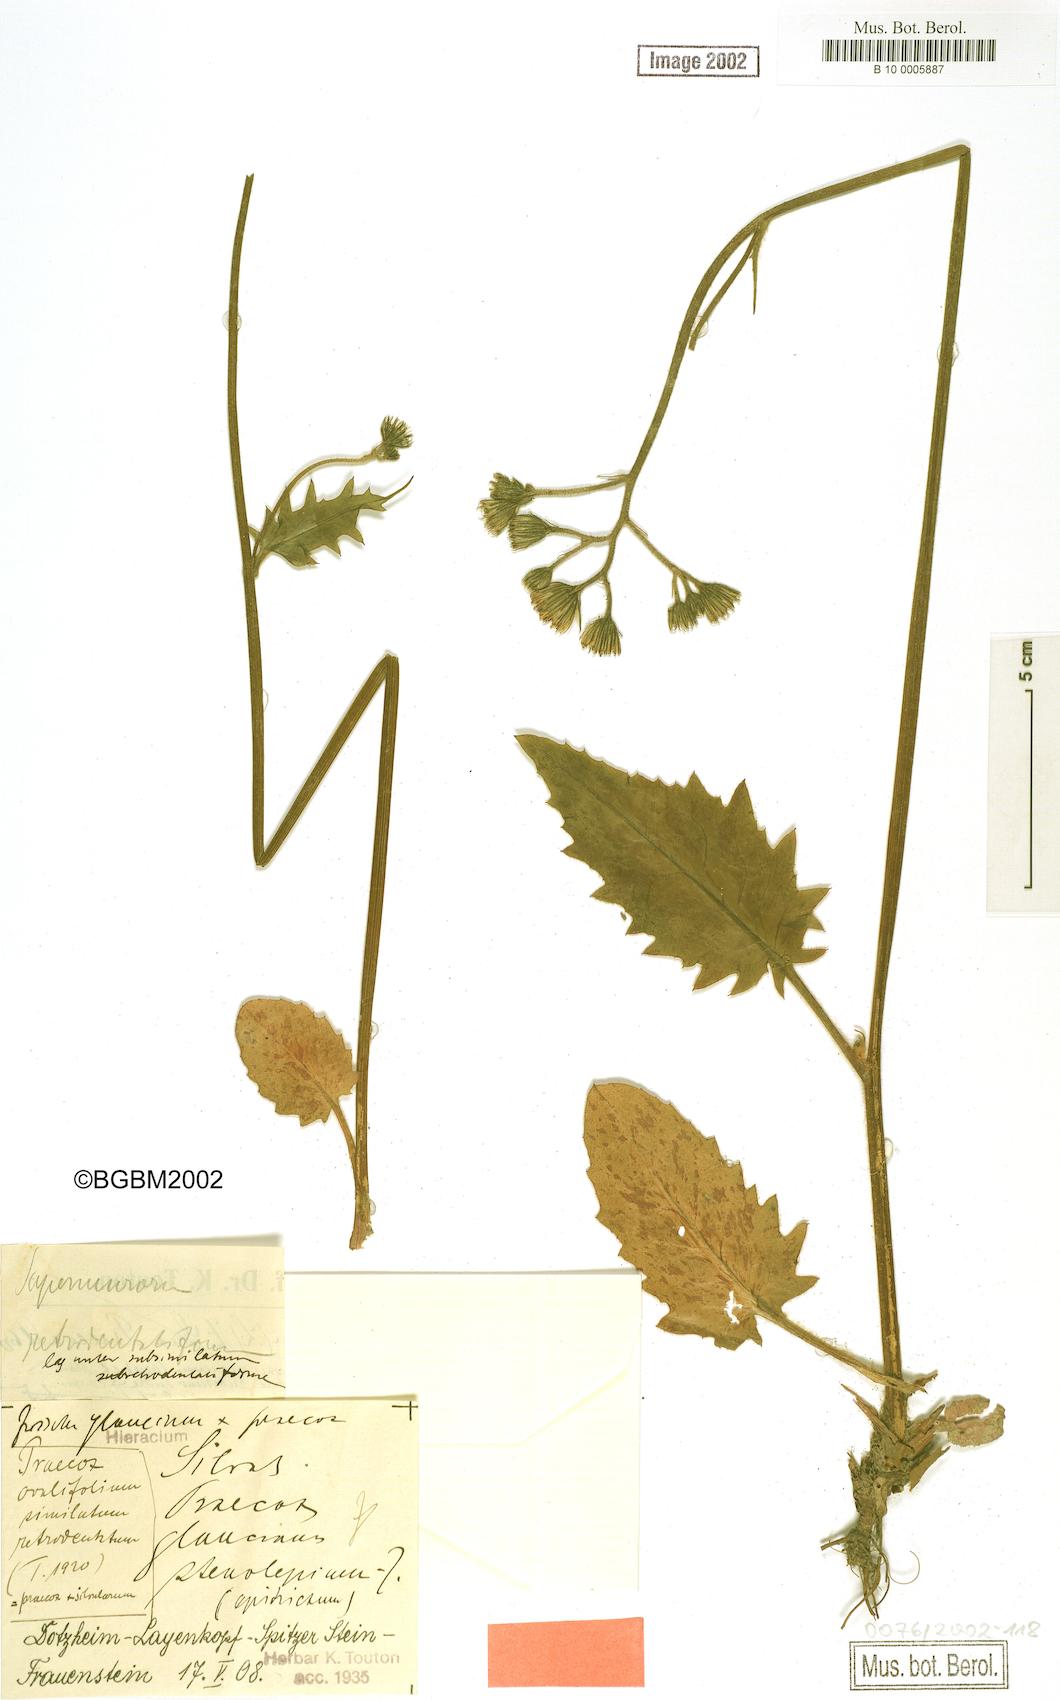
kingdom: Plantae
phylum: Tracheophyta
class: Magnoliopsida
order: Asterales
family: Asteraceae
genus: Hieracium
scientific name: Hieracium praecox
